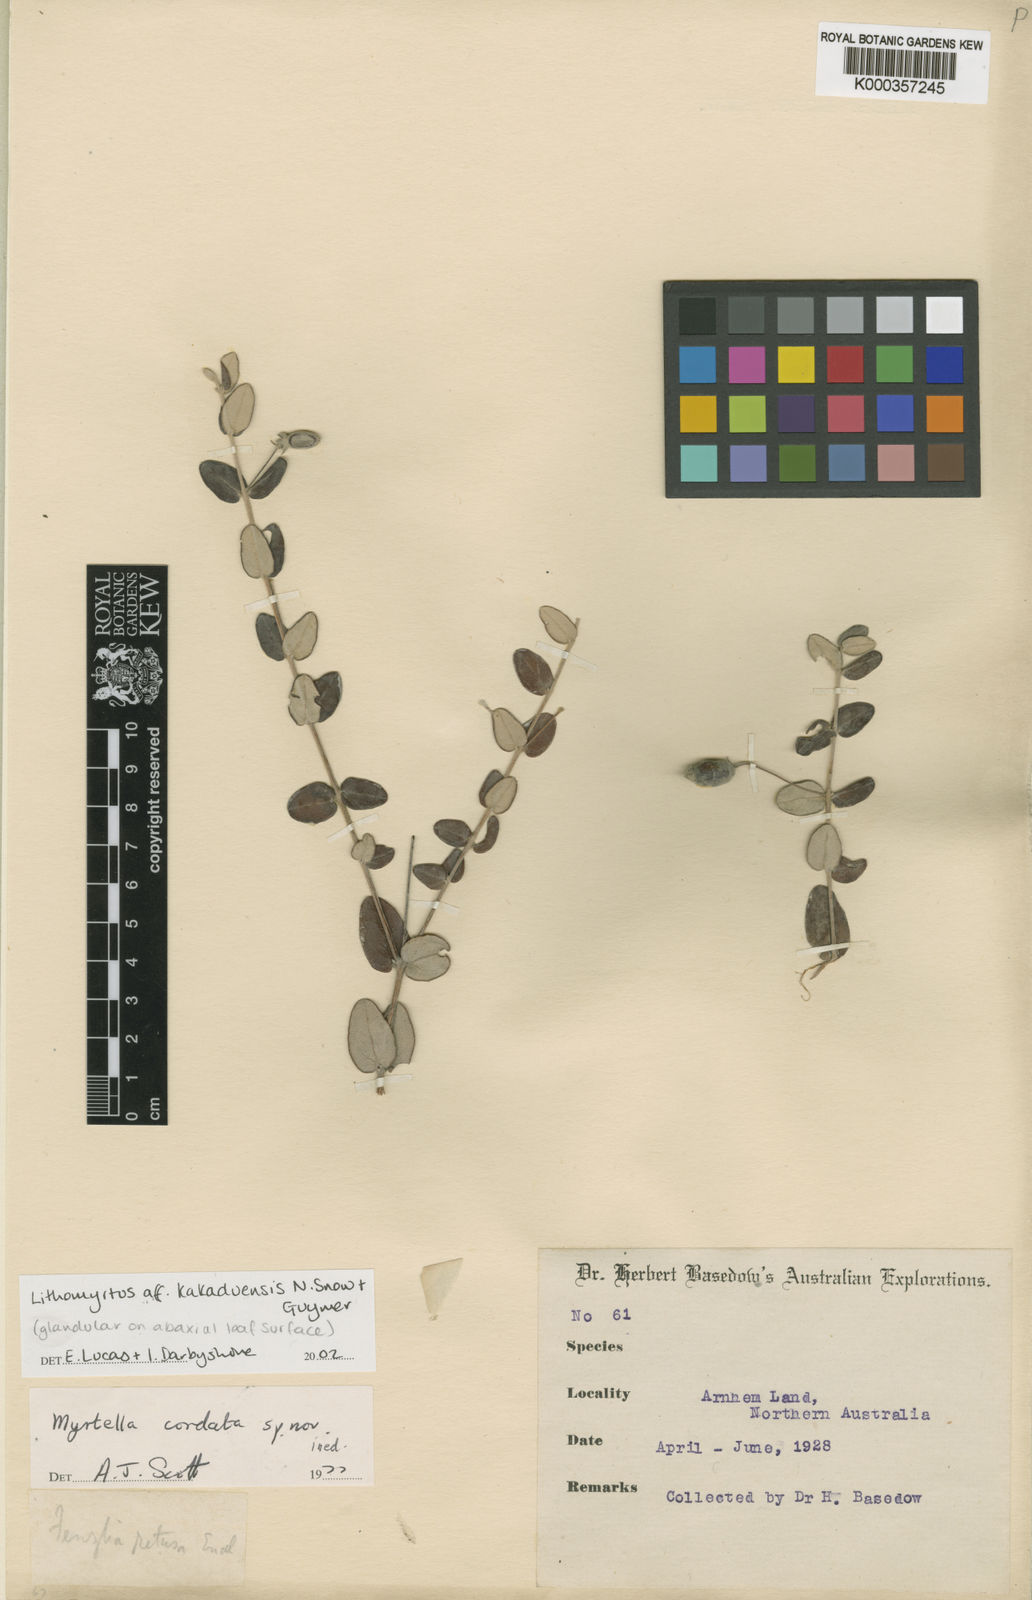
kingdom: Plantae
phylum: Tracheophyta
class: Magnoliopsida
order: Myrtales
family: Myrtaceae
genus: Lithomyrtus
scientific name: Lithomyrtus kakaduensis
